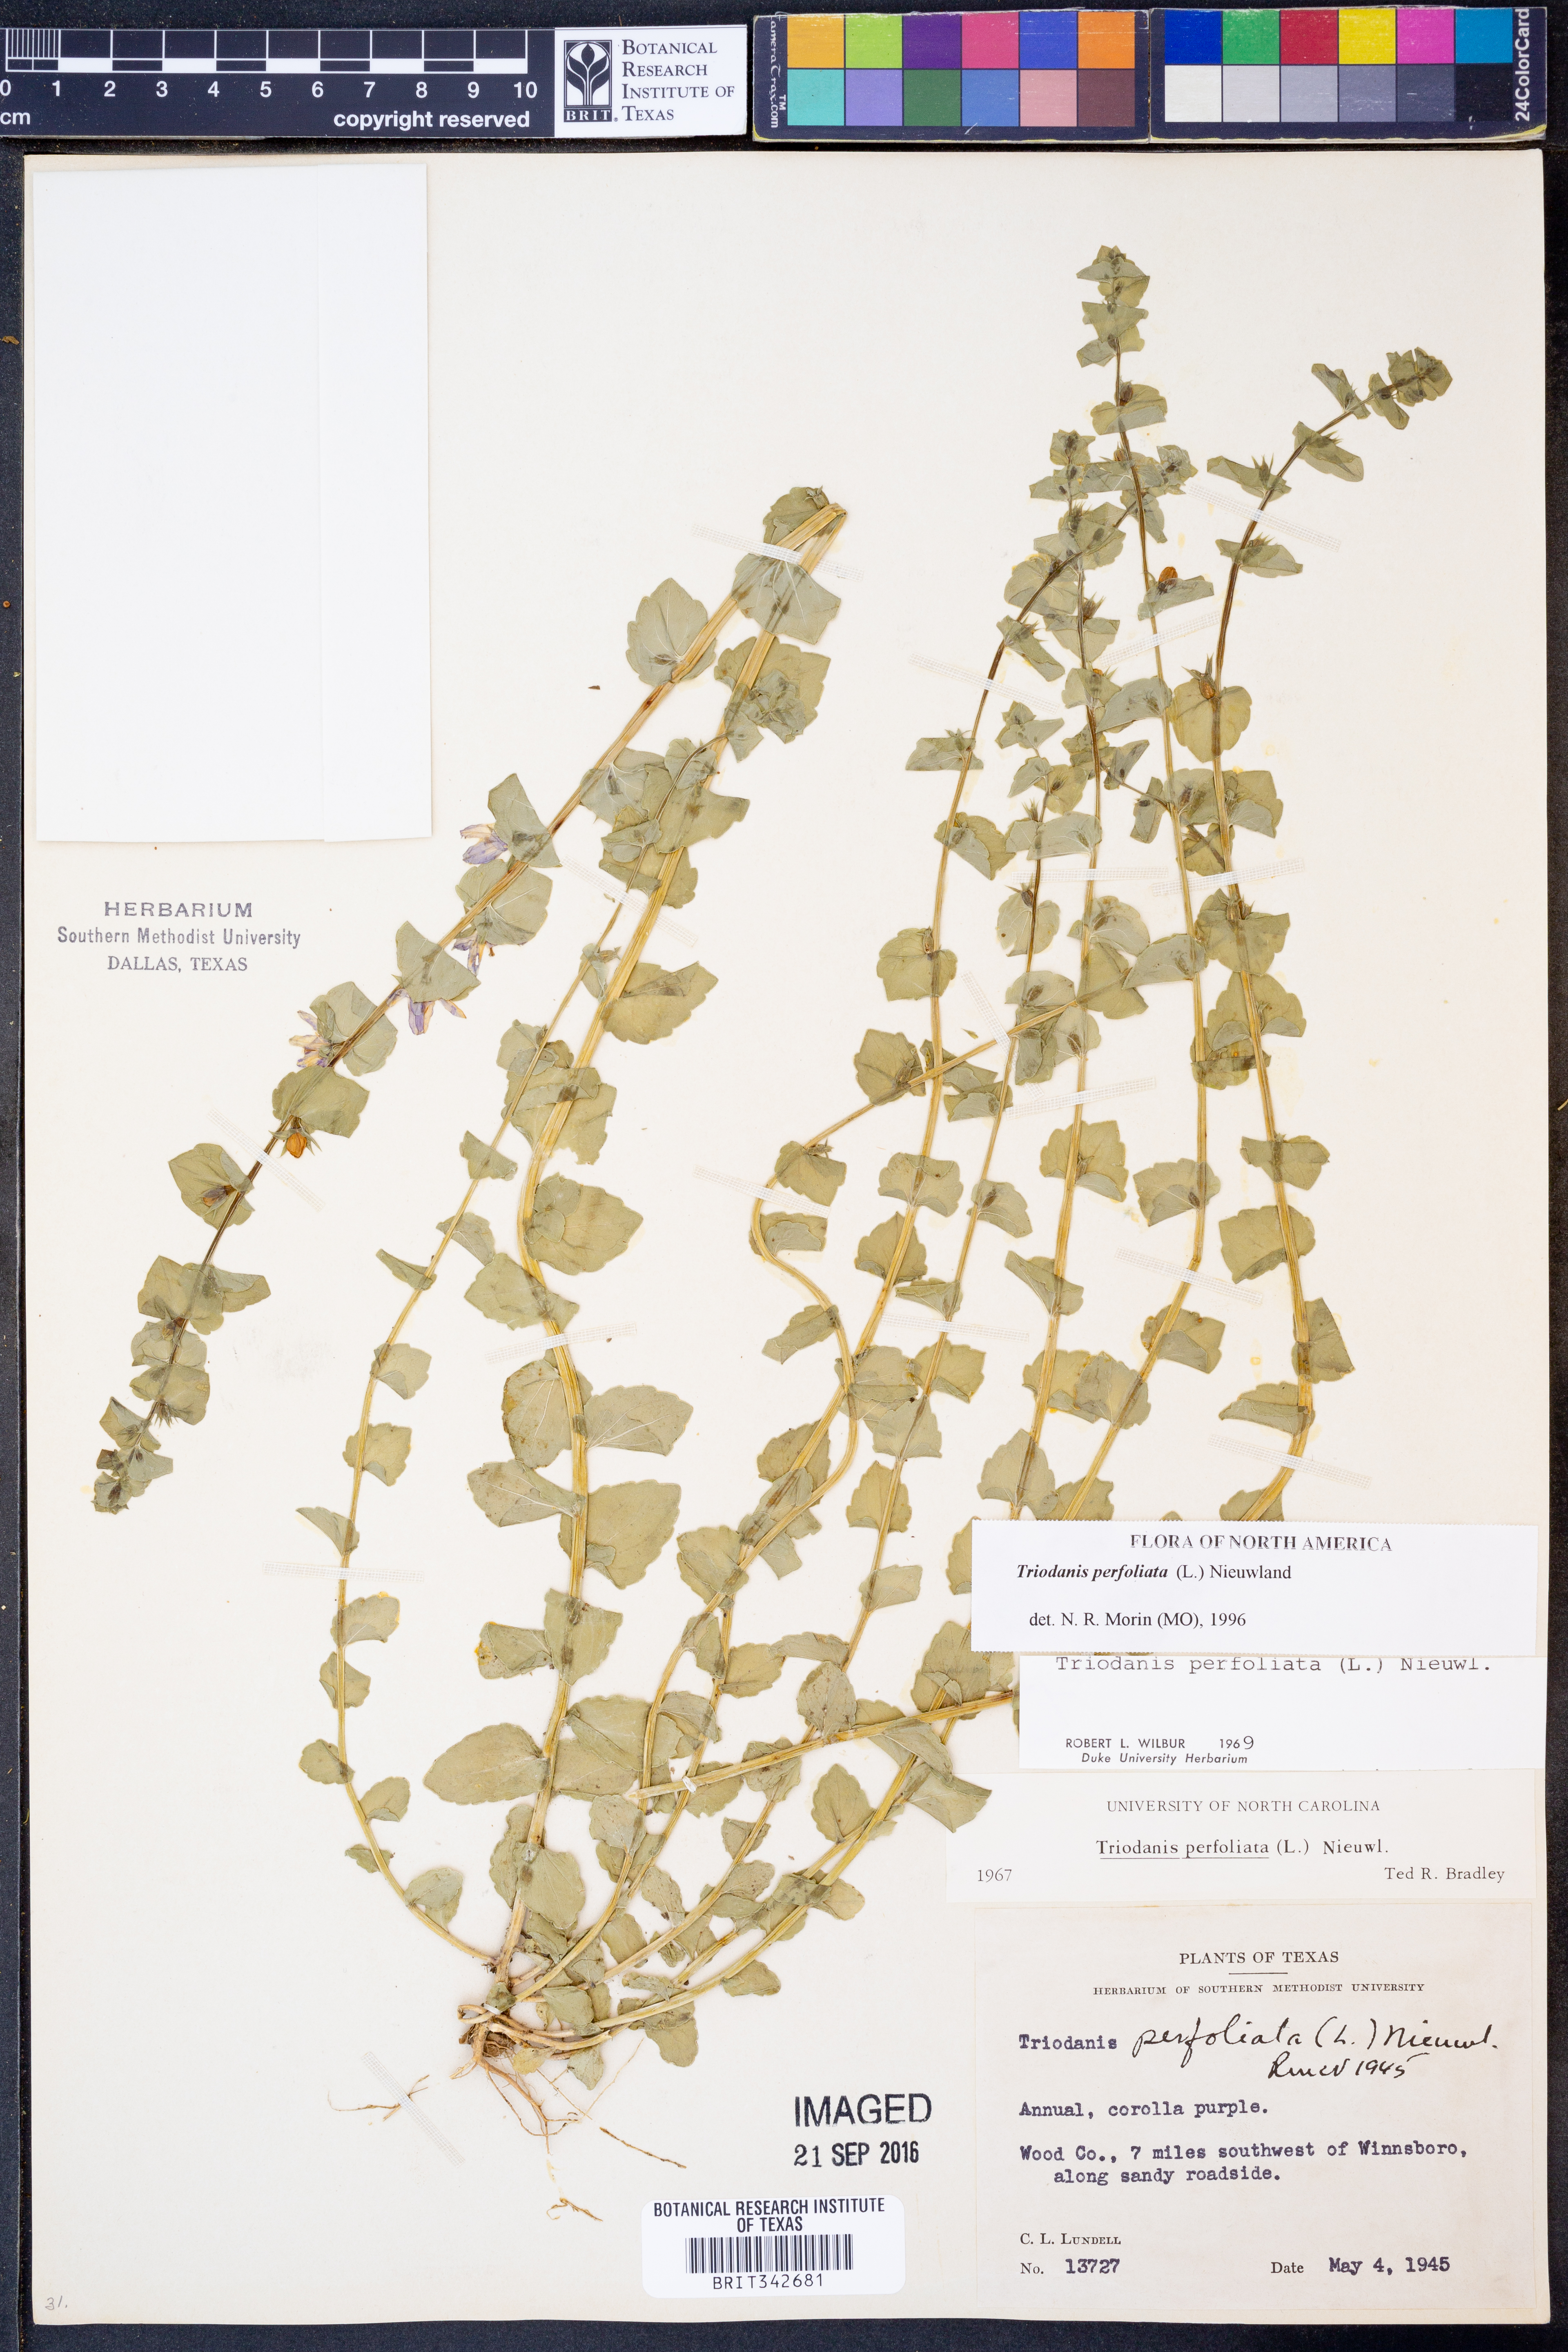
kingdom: Plantae
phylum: Tracheophyta
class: Magnoliopsida
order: Asterales
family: Campanulaceae
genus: Triodanis
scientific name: Triodanis perfoliata
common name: Clasping venus' looking-glass
